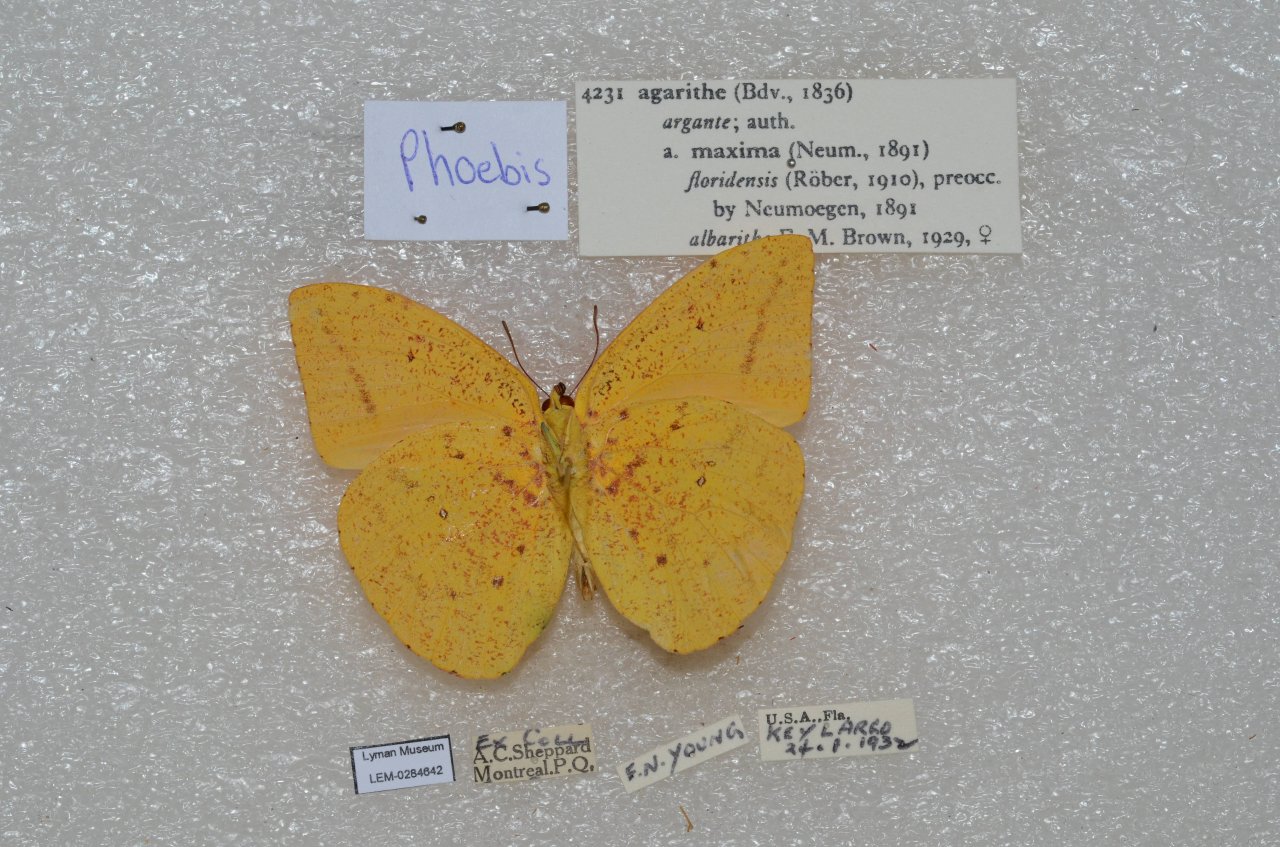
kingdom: Animalia
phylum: Arthropoda
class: Insecta
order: Lepidoptera
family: Pieridae
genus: Phoebis
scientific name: Phoebis agarithe
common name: Large Orange Sulphur
